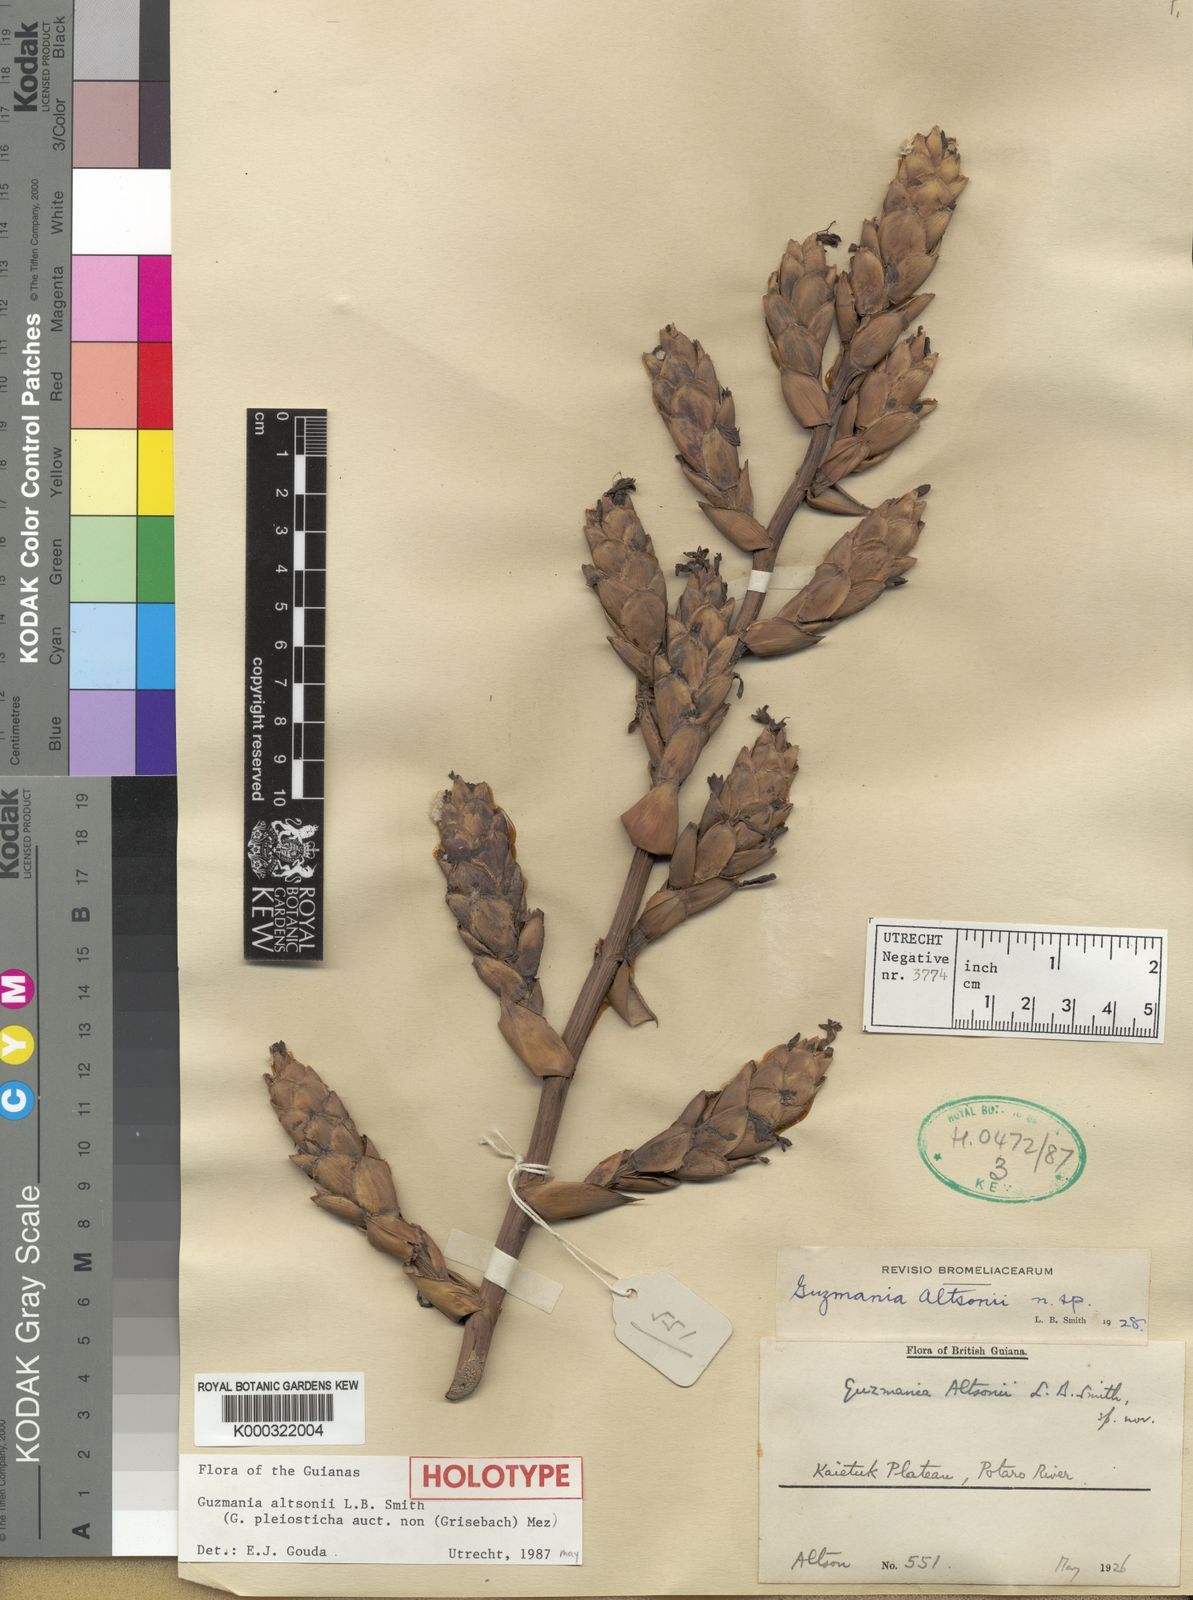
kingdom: Plantae
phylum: Tracheophyta
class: Liliopsida
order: Poales
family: Bromeliaceae
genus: Guzmania
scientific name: Guzmania altsonii
